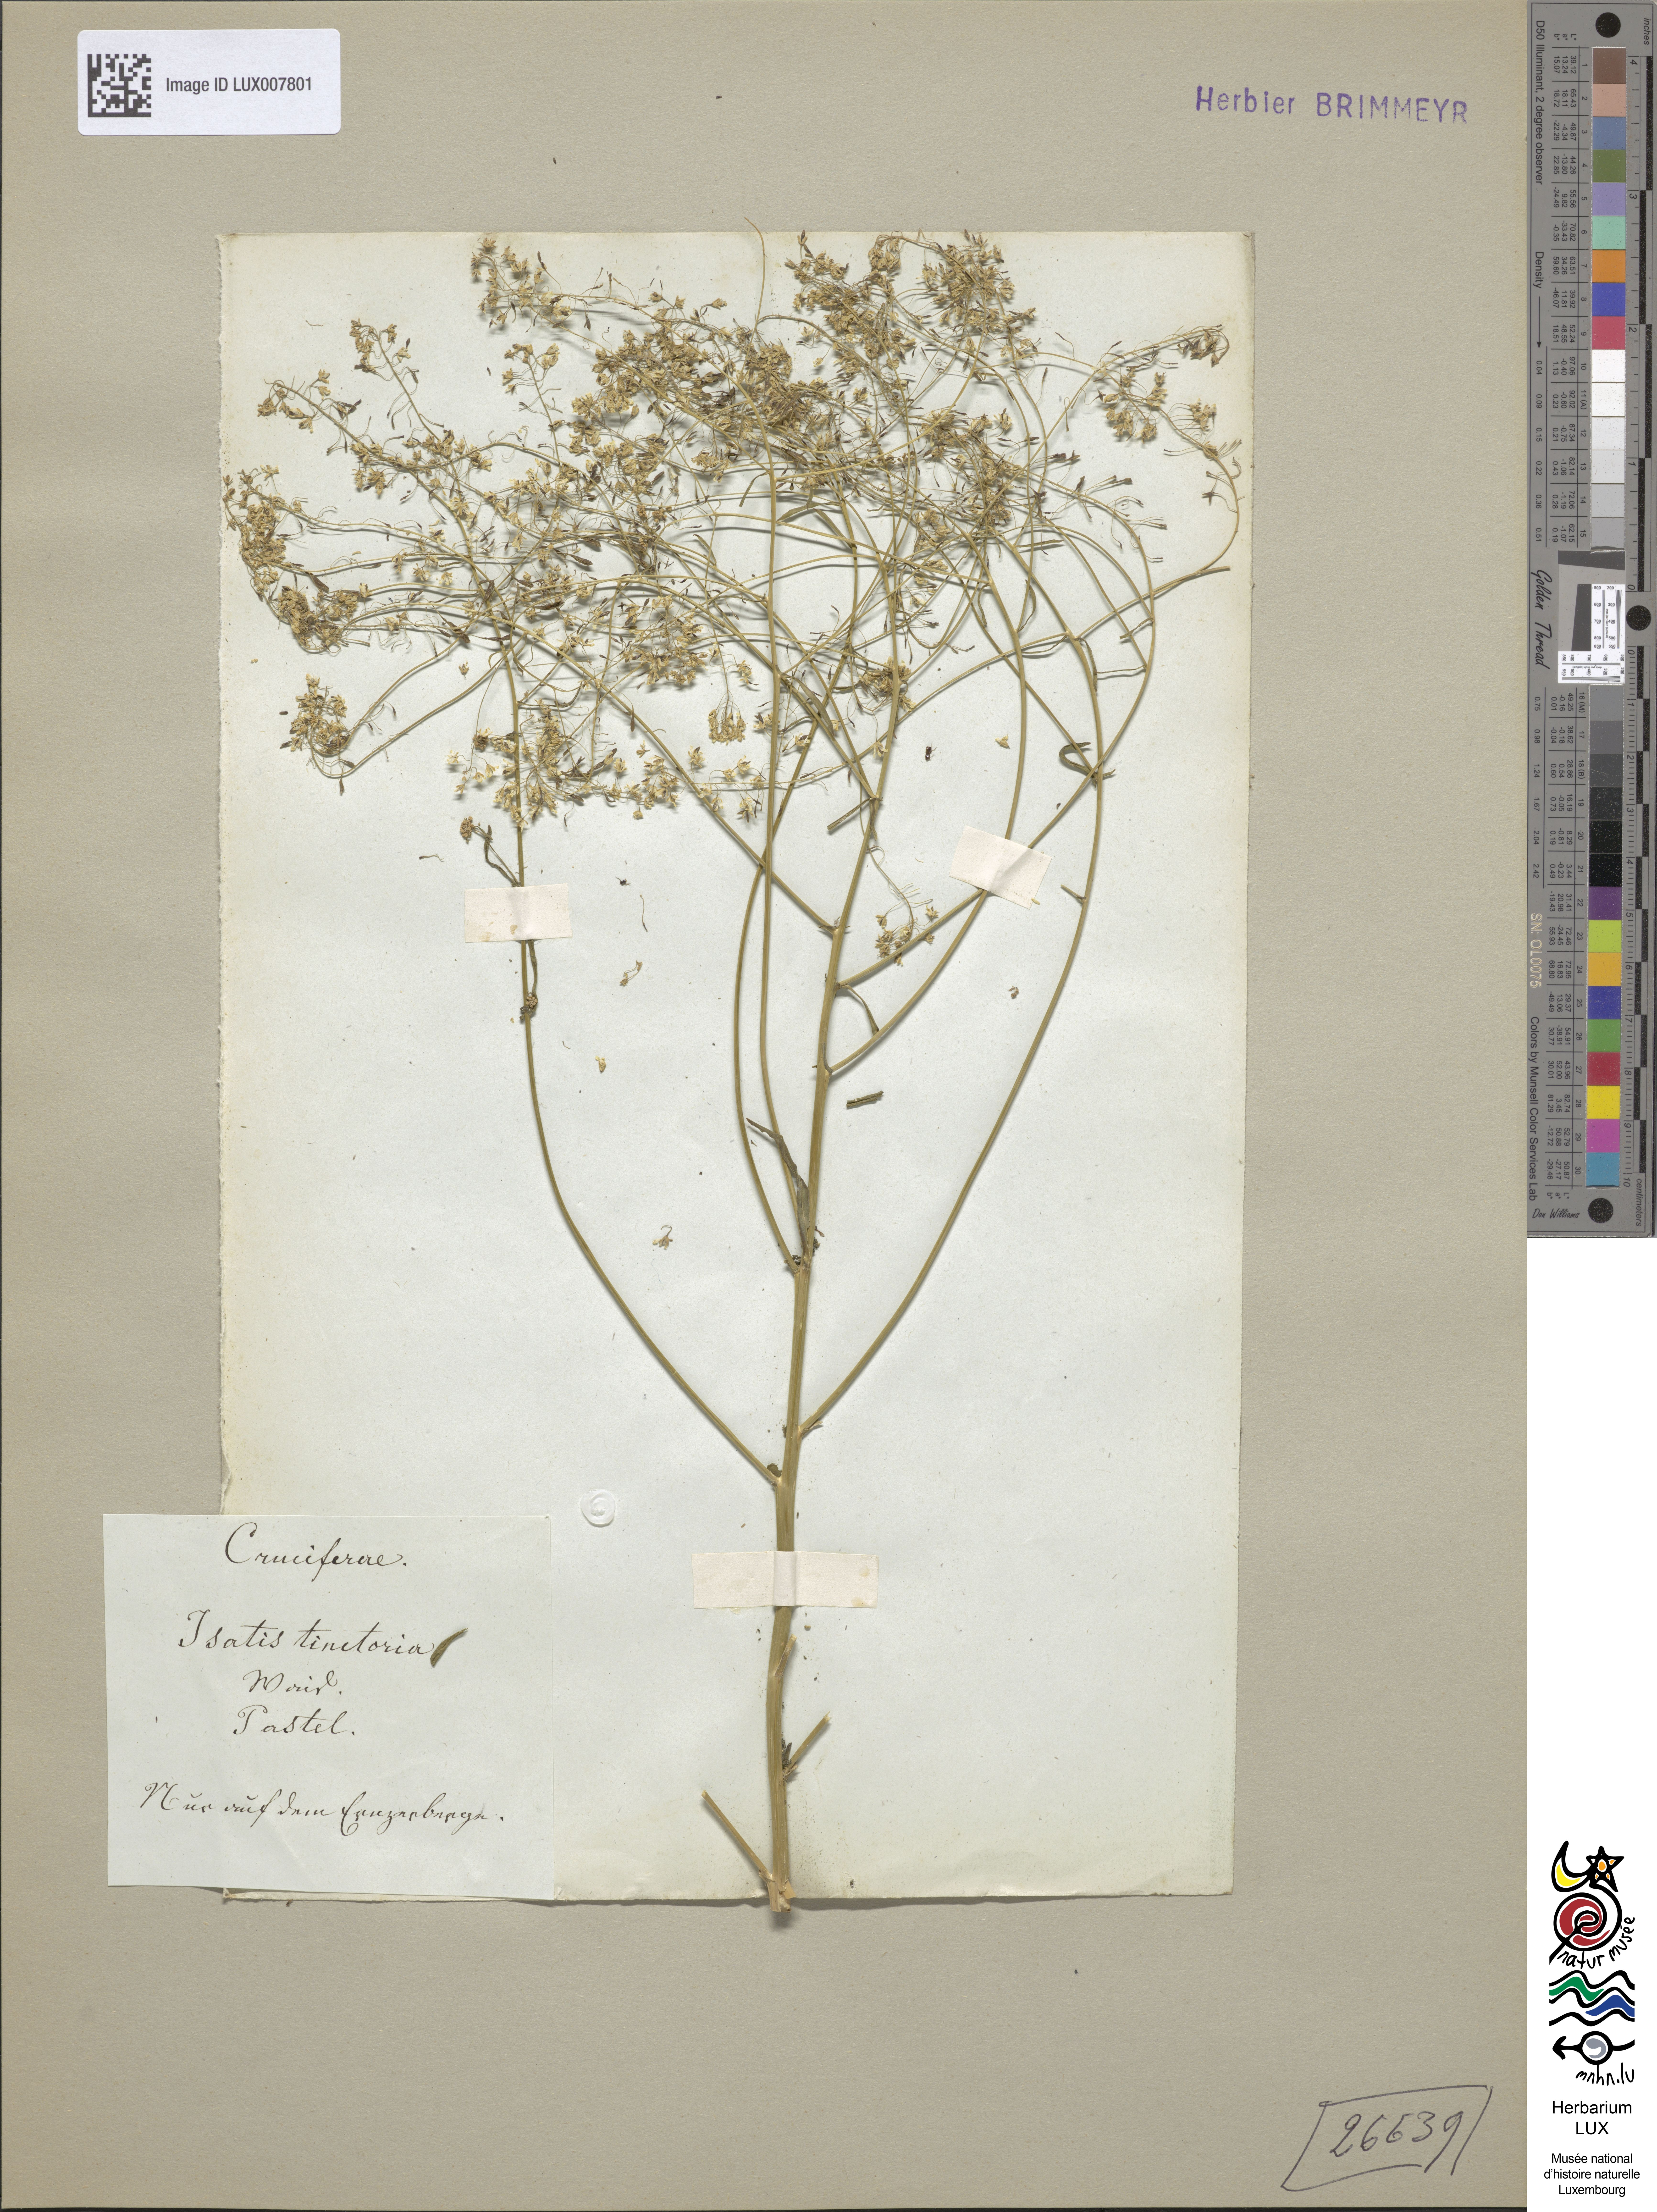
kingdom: Plantae
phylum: Tracheophyta
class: Magnoliopsida
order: Brassicales
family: Brassicaceae
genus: Isatis
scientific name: Isatis tinctoria
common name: Woad
